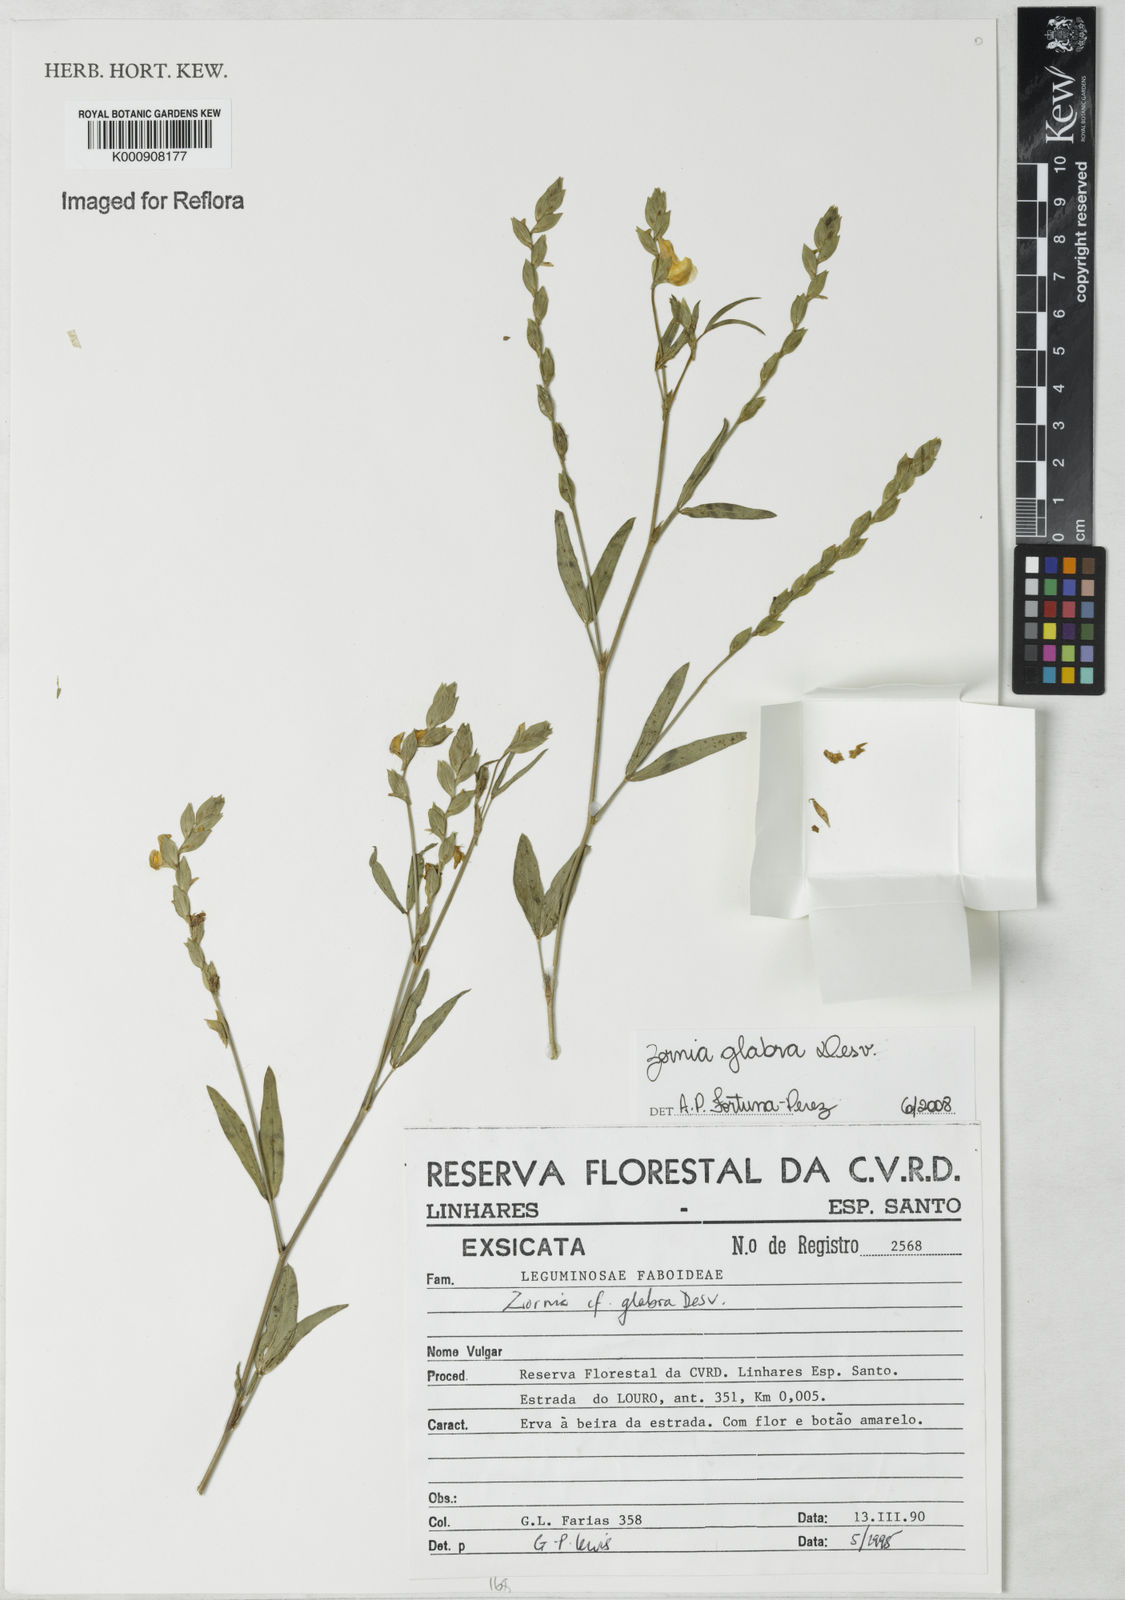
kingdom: Plantae
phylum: Tracheophyta
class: Magnoliopsida
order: Fabales
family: Fabaceae
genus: Zornia
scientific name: Zornia glabra
